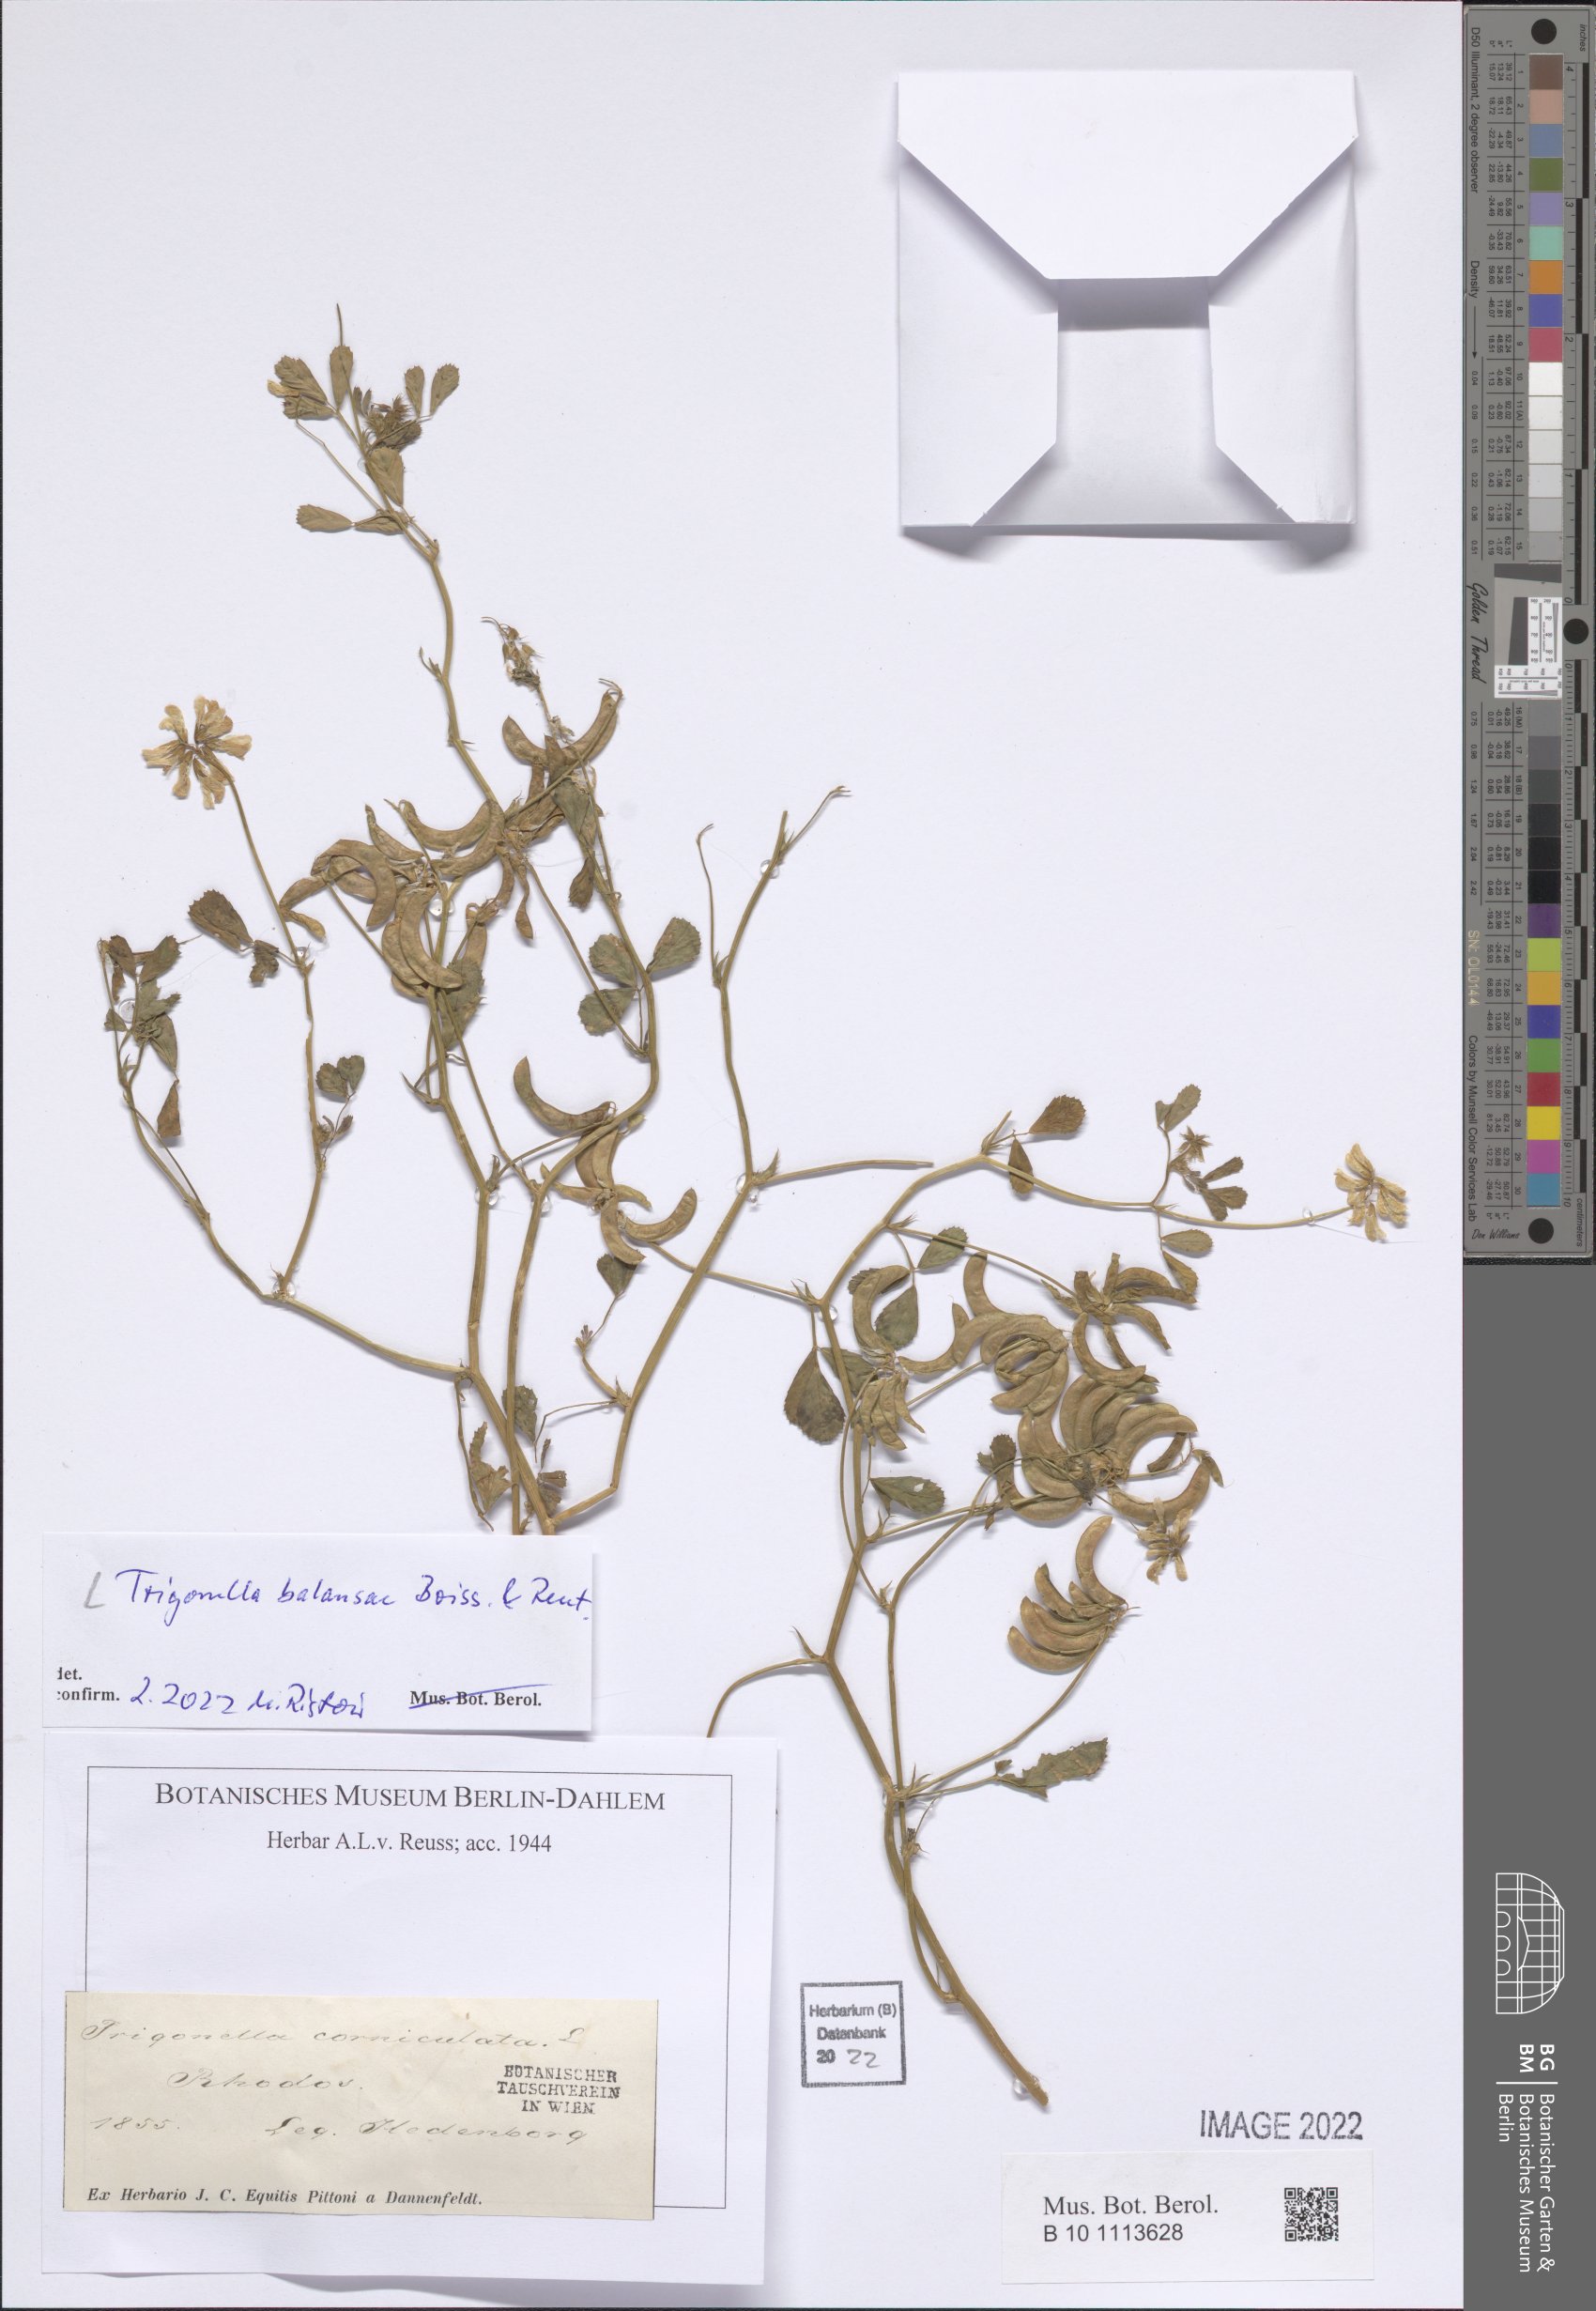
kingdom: Plantae
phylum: Tracheophyta
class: Magnoliopsida
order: Fabales
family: Fabaceae
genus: Trigonella
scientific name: Trigonella balansae
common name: Sickle-fruited fenugreek
